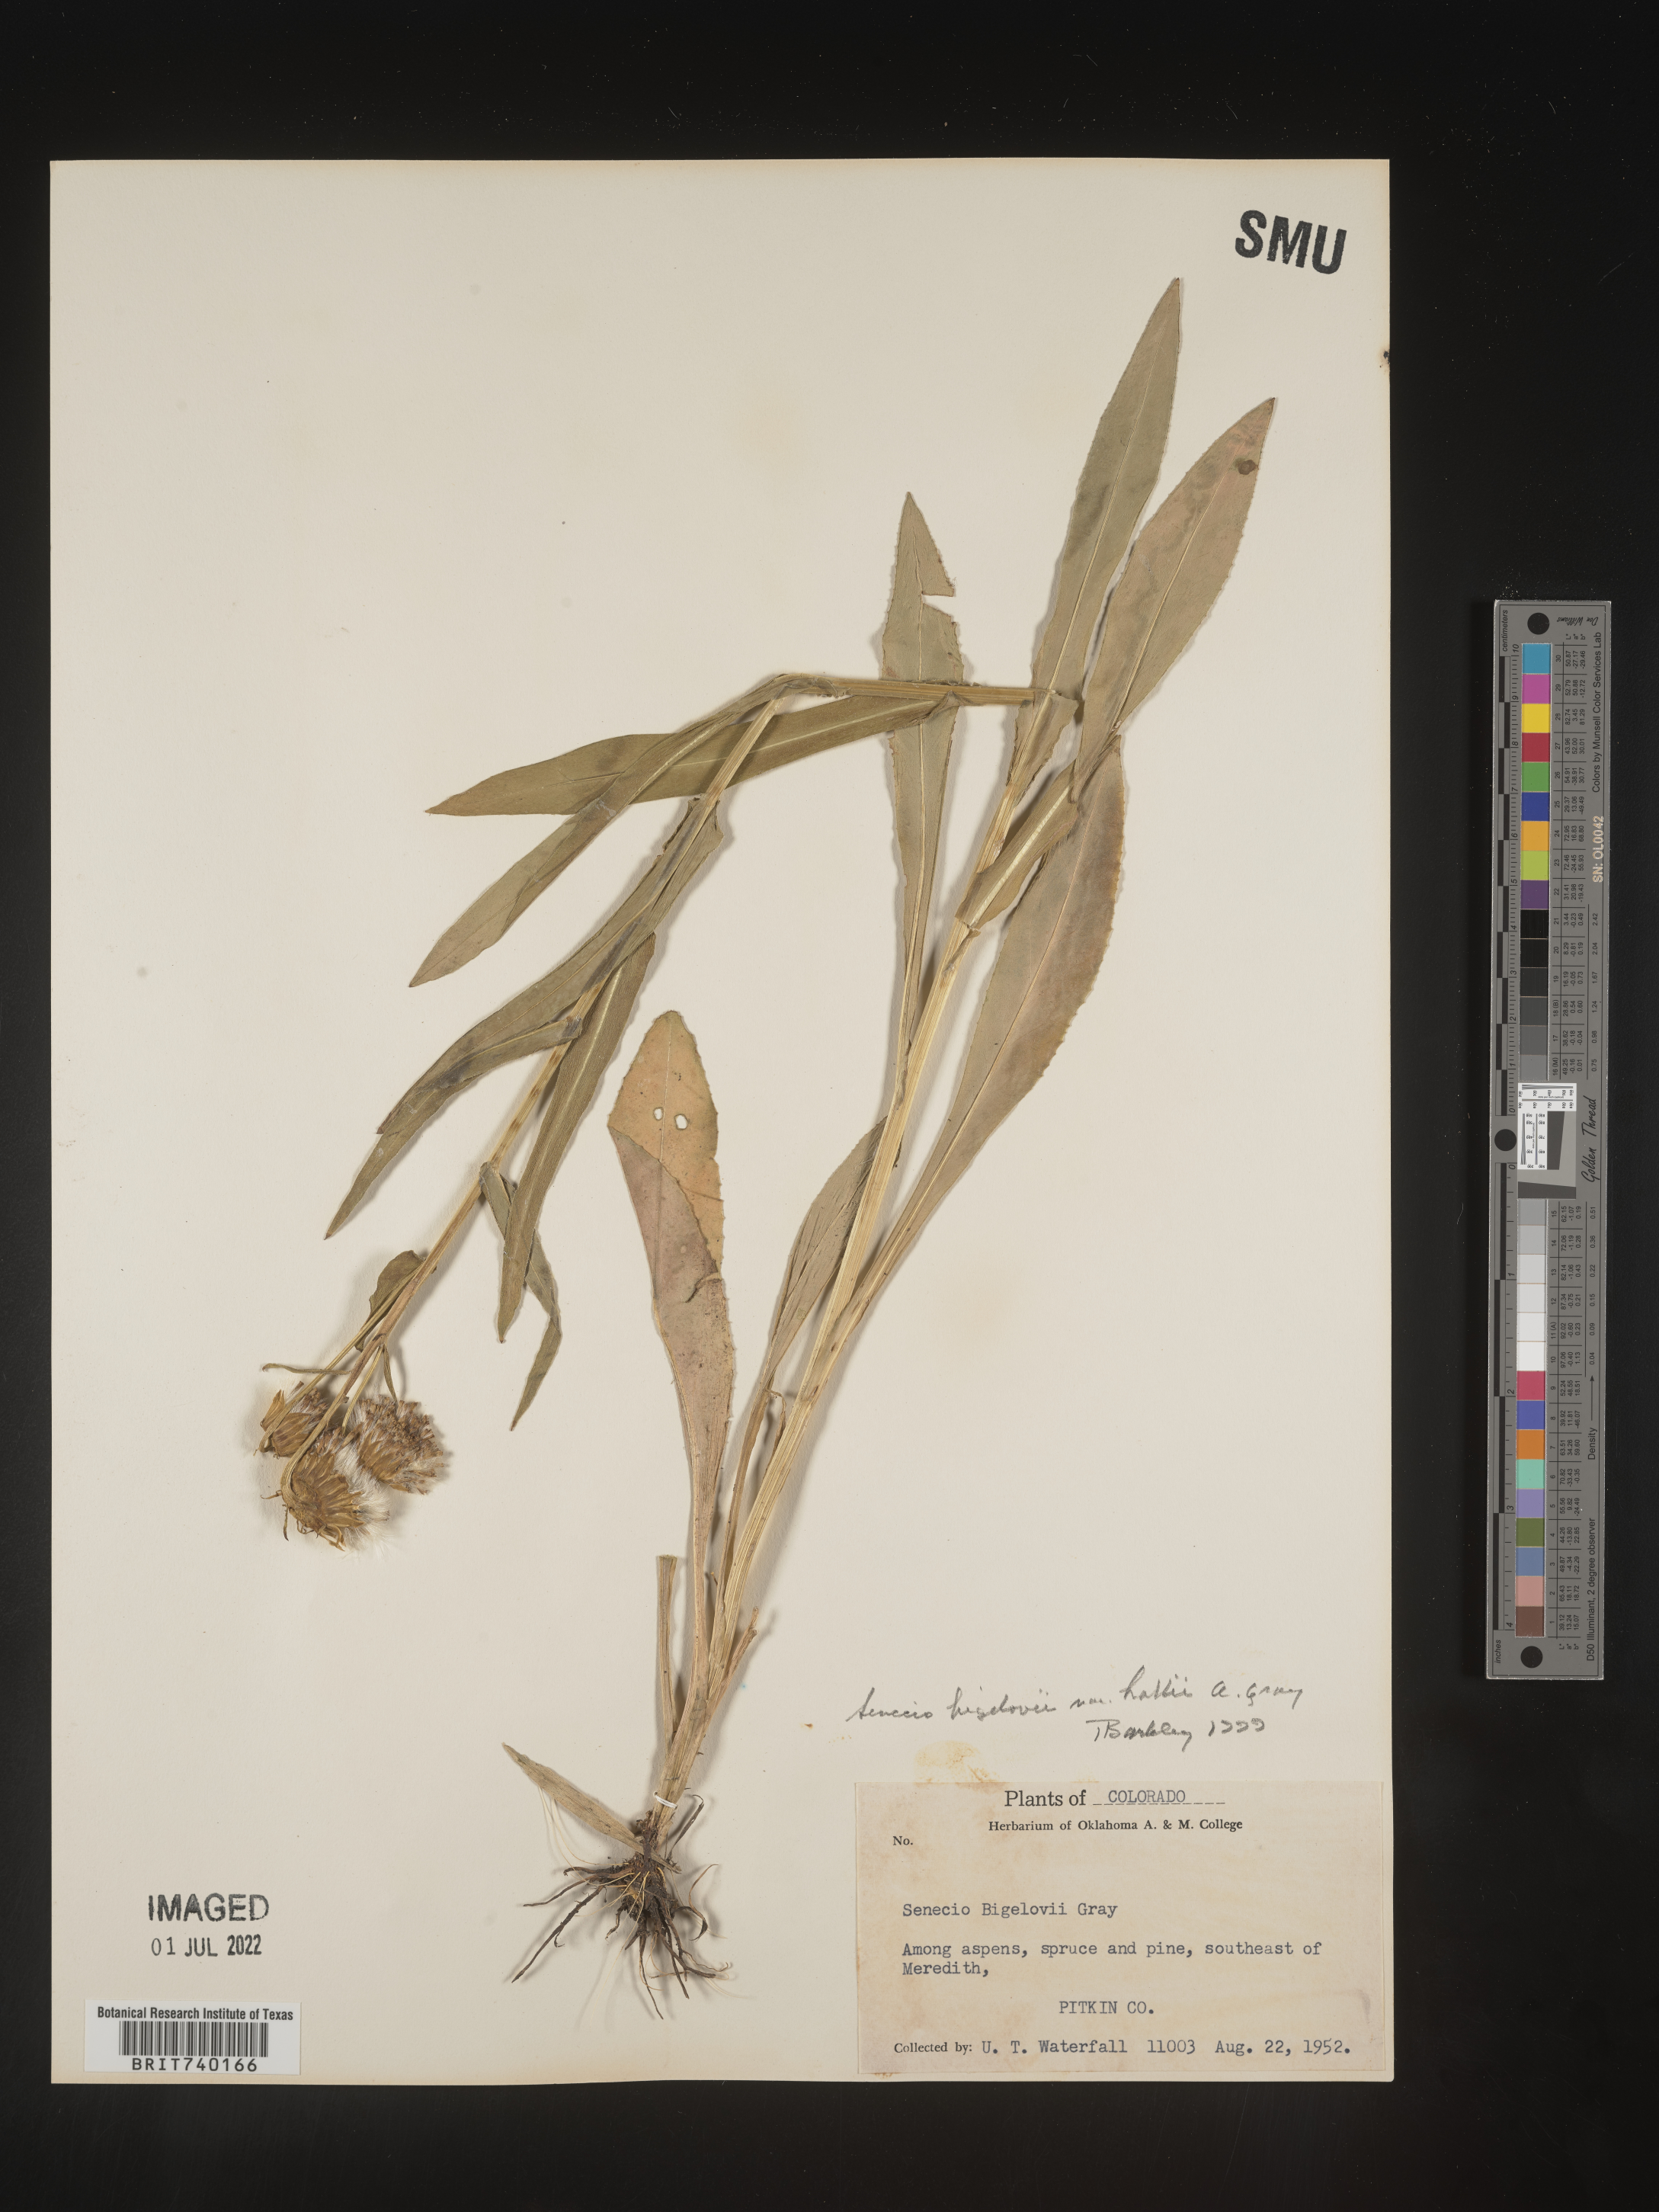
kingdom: Plantae
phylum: Tracheophyta
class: Magnoliopsida
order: Asterales
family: Asteraceae
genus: Senecio
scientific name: Senecio bigelovii
